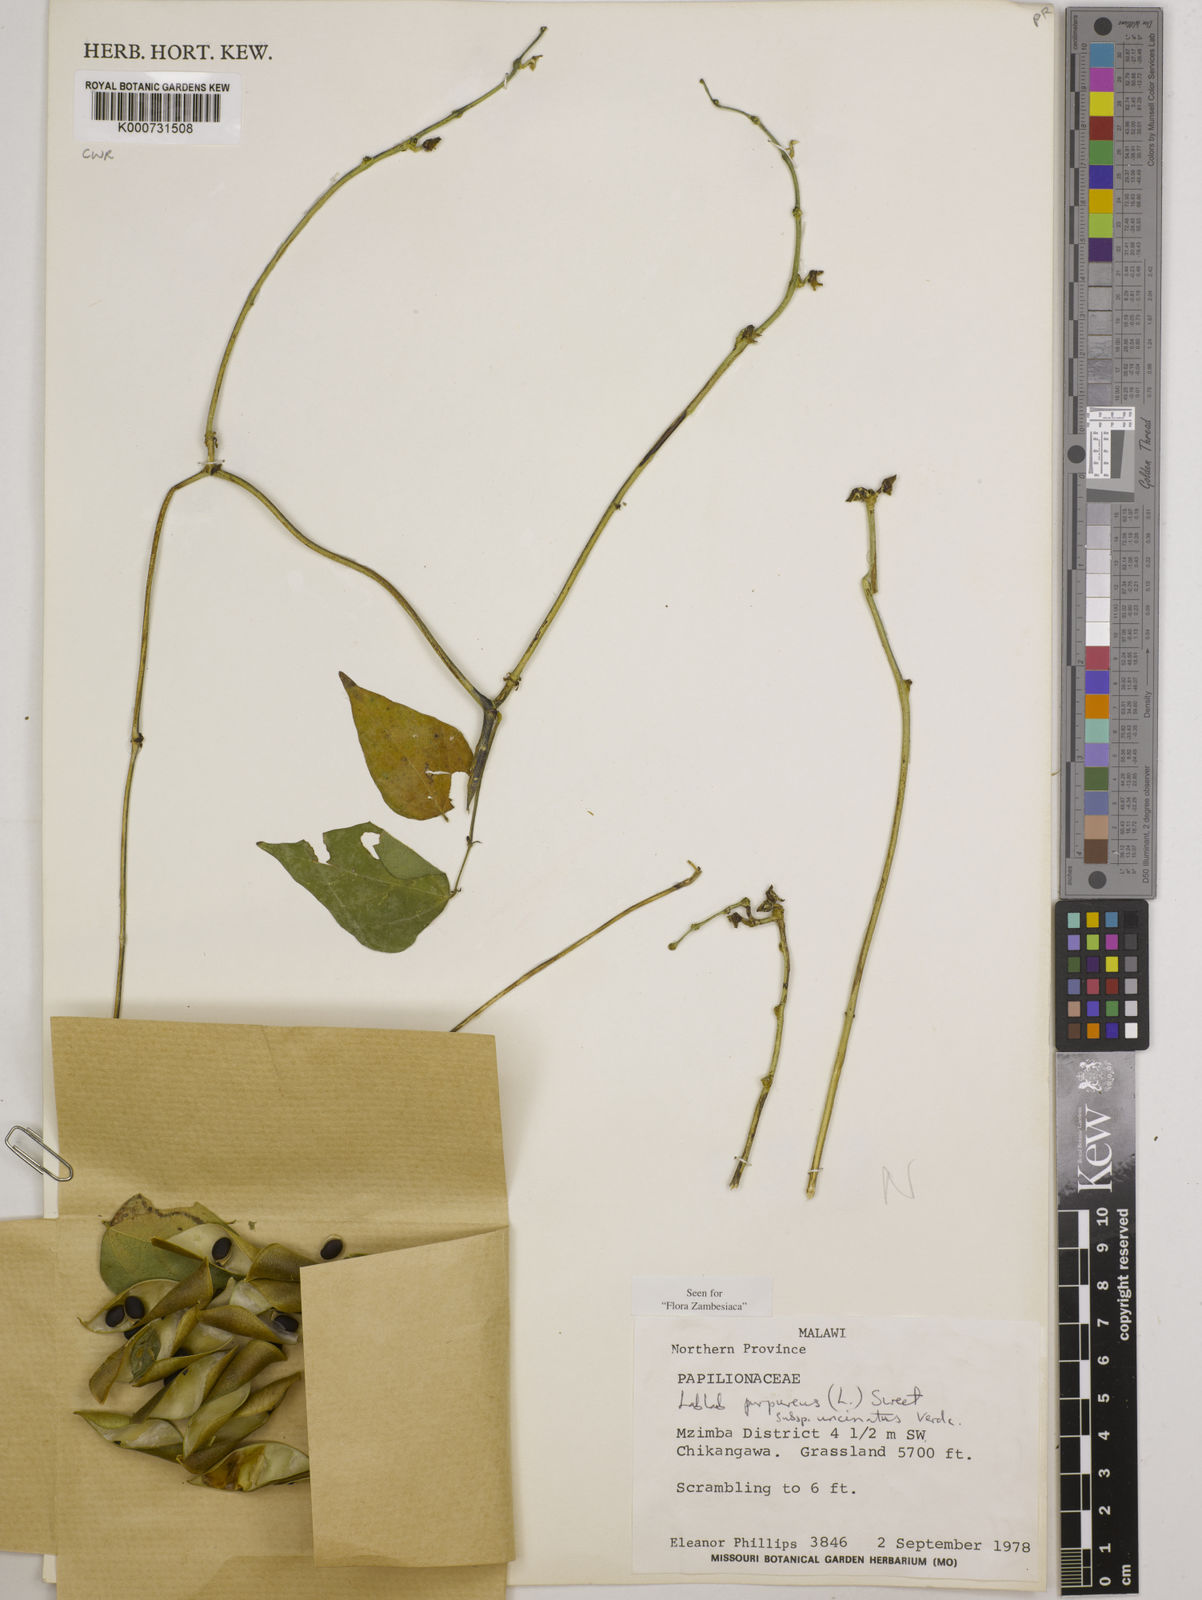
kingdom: Plantae
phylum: Tracheophyta
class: Magnoliopsida
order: Fabales
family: Fabaceae
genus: Lablab
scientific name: Lablab purpureus
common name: Lablab-bean
